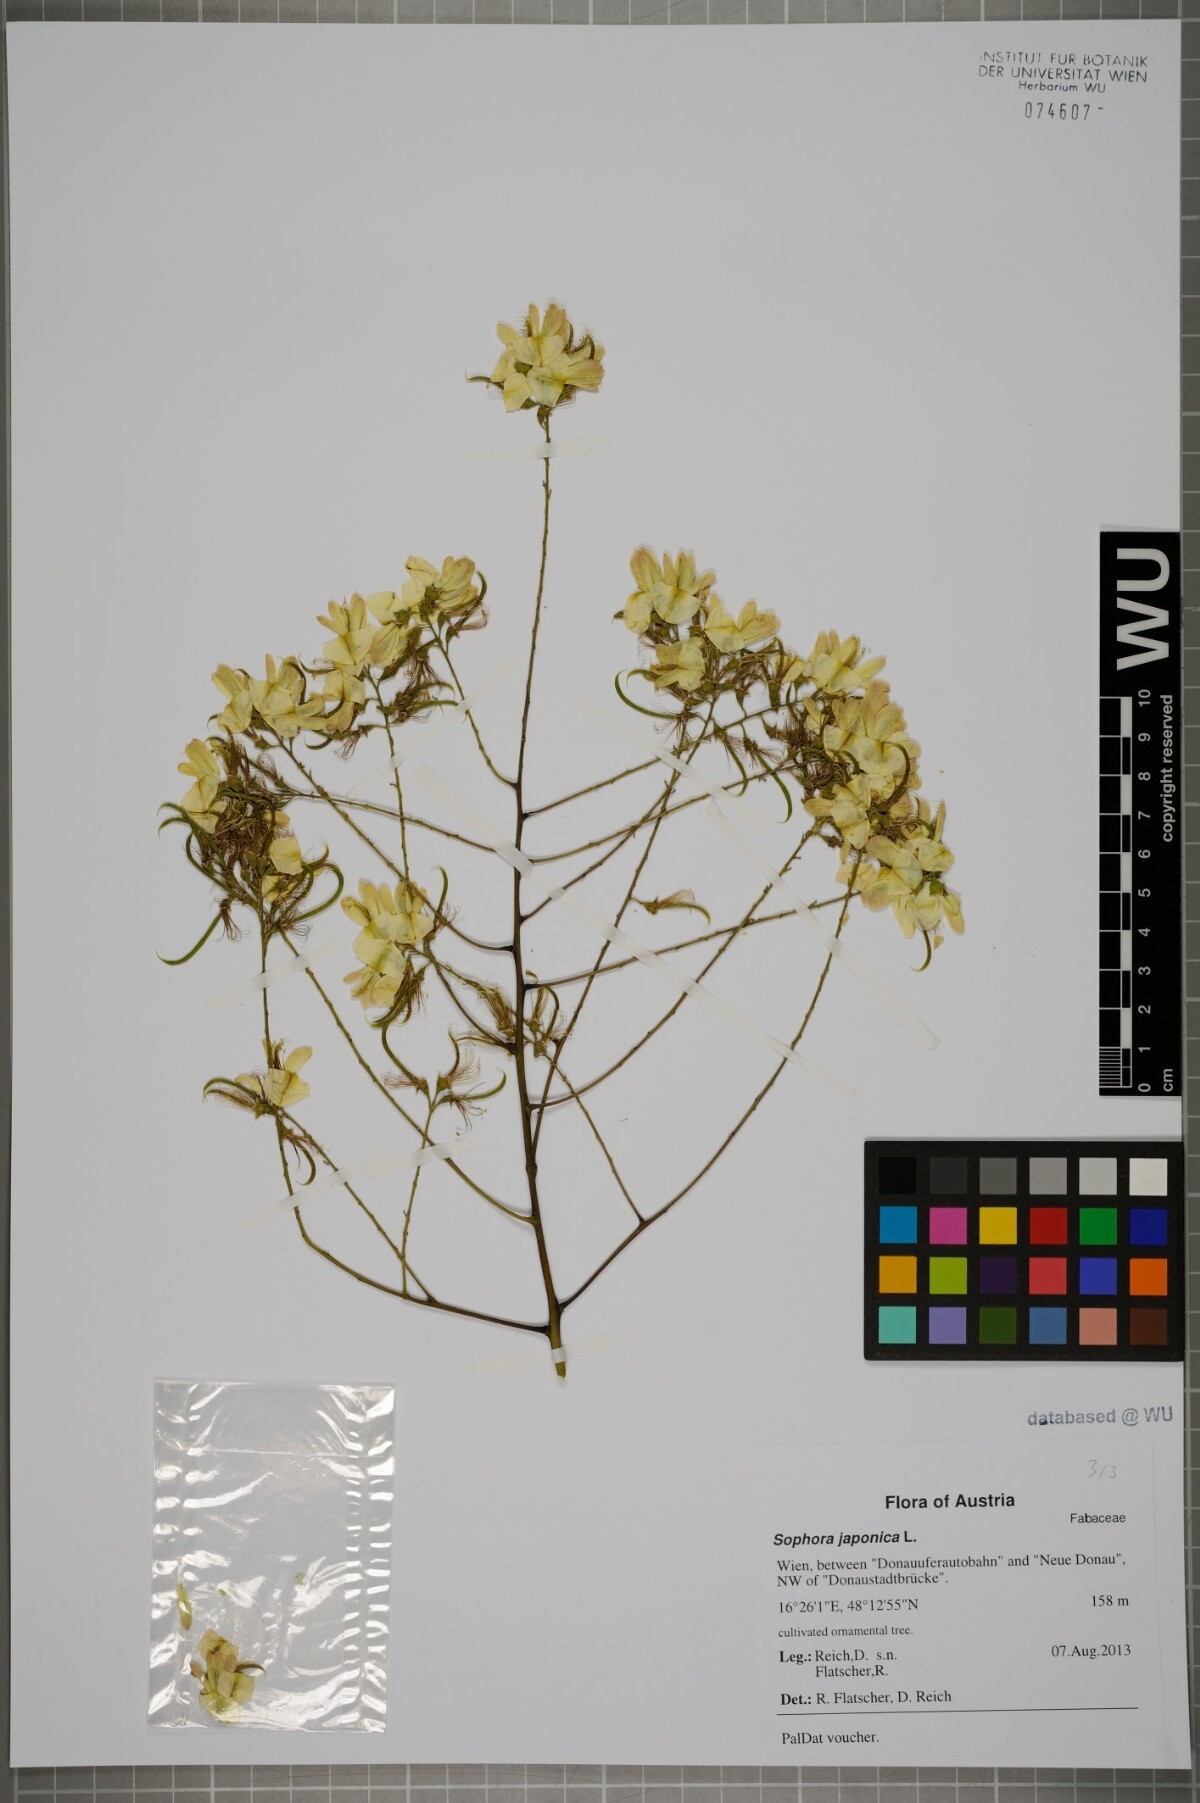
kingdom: Plantae
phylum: Tracheophyta
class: Magnoliopsida
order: Fabales
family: Fabaceae
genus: Styphnolobium
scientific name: Styphnolobium japonicum
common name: Chinese scholartree
